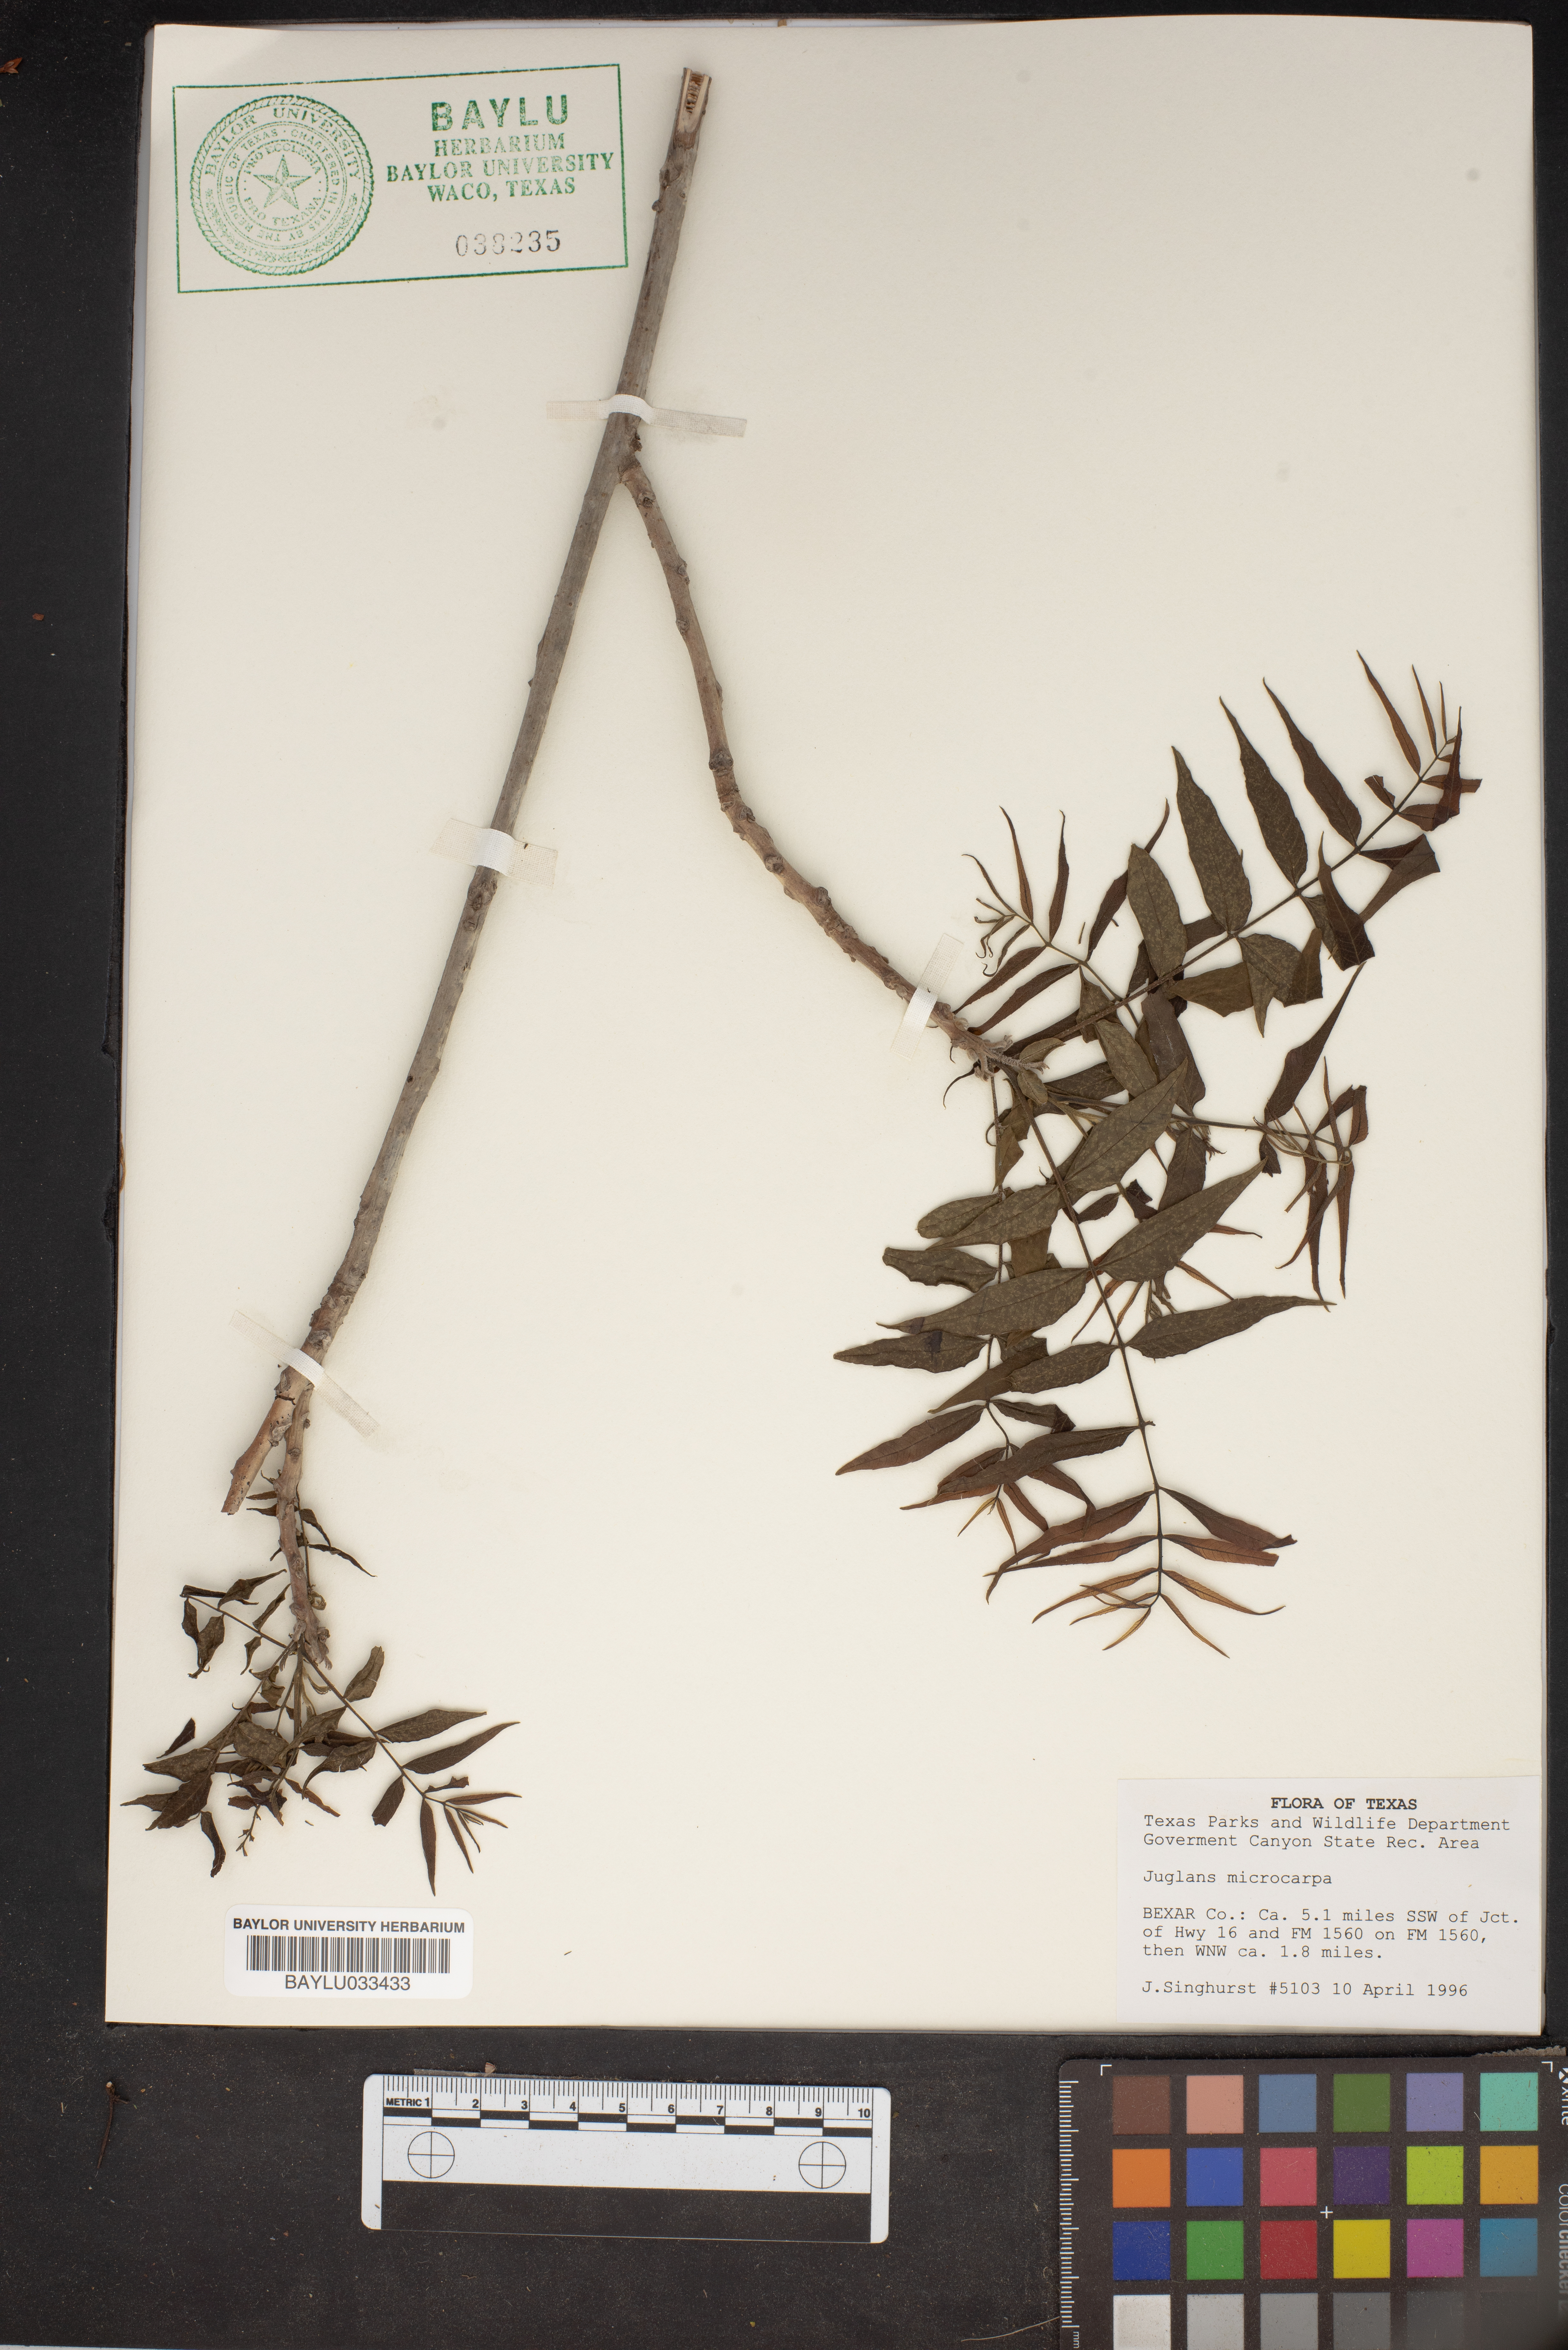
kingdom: Plantae
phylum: Tracheophyta
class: Magnoliopsida
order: Fagales
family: Juglandaceae
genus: Juglans
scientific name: Juglans microcarpa
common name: Texas walnut
